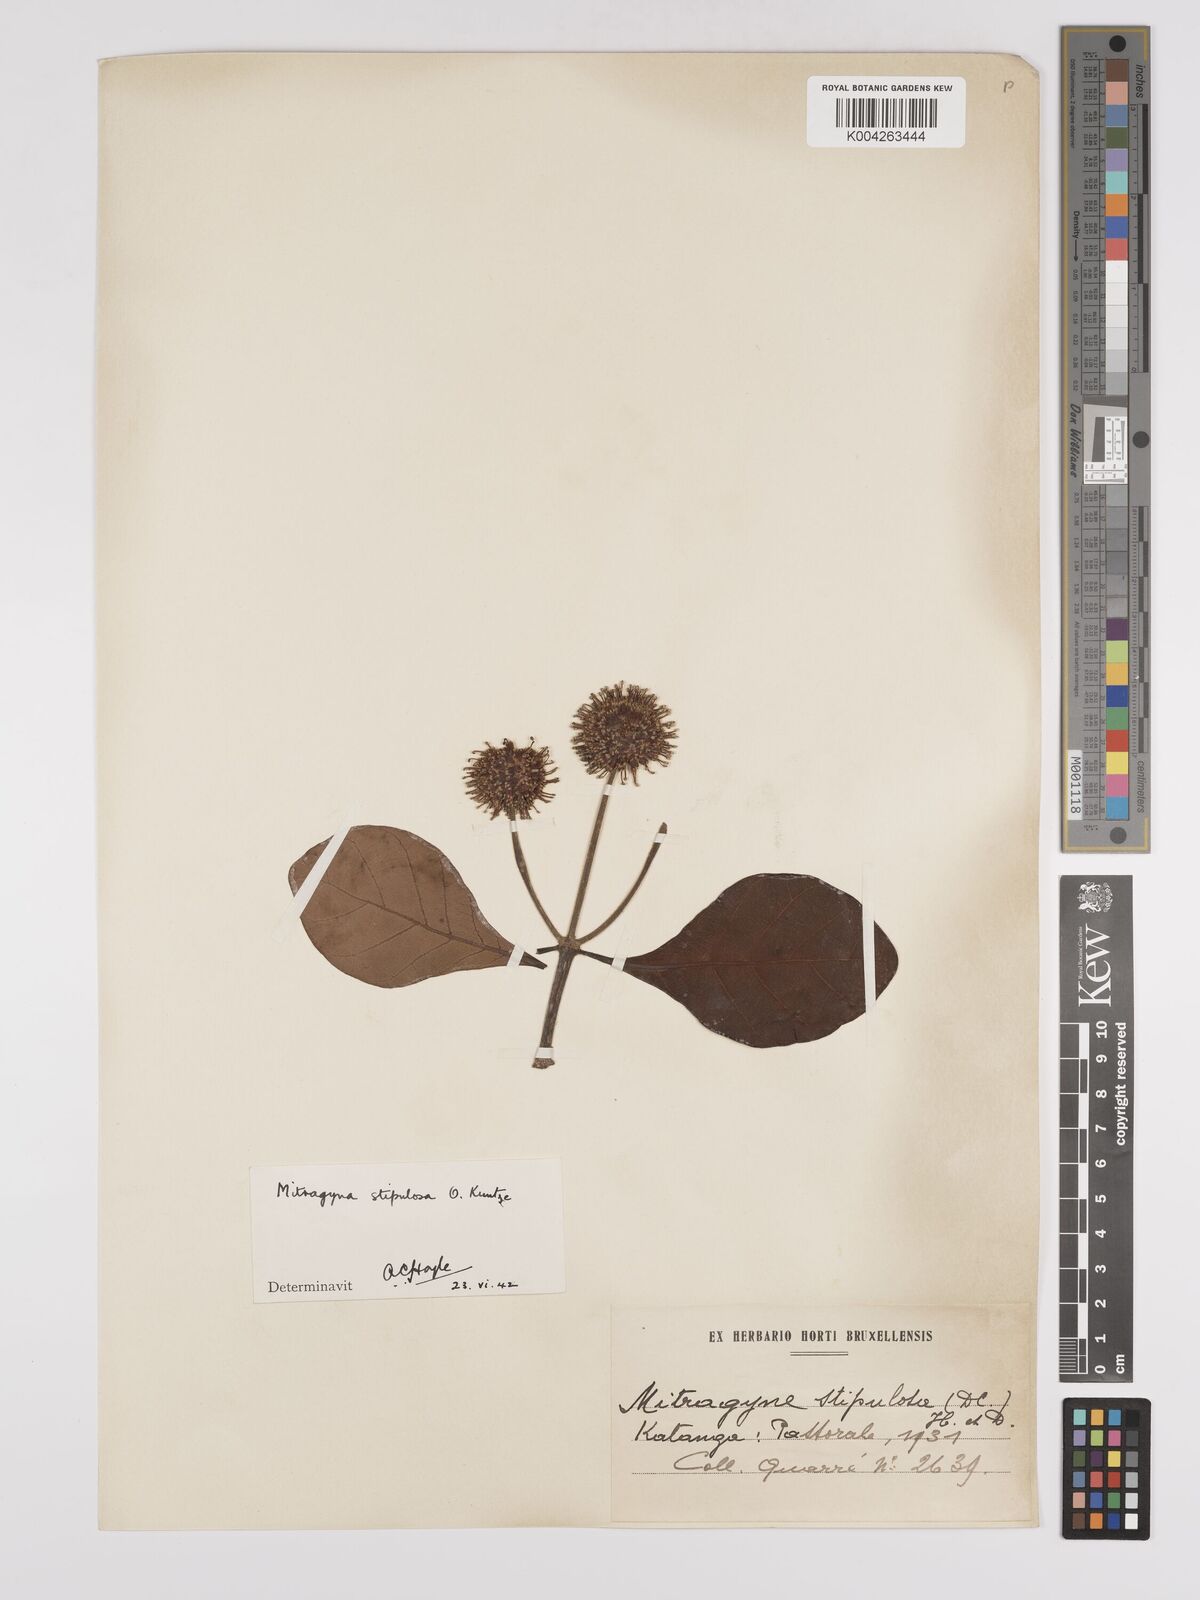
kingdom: Plantae
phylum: Tracheophyta
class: Magnoliopsida
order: Gentianales
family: Rubiaceae
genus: Mitragyna
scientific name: Mitragyna stipulosa
